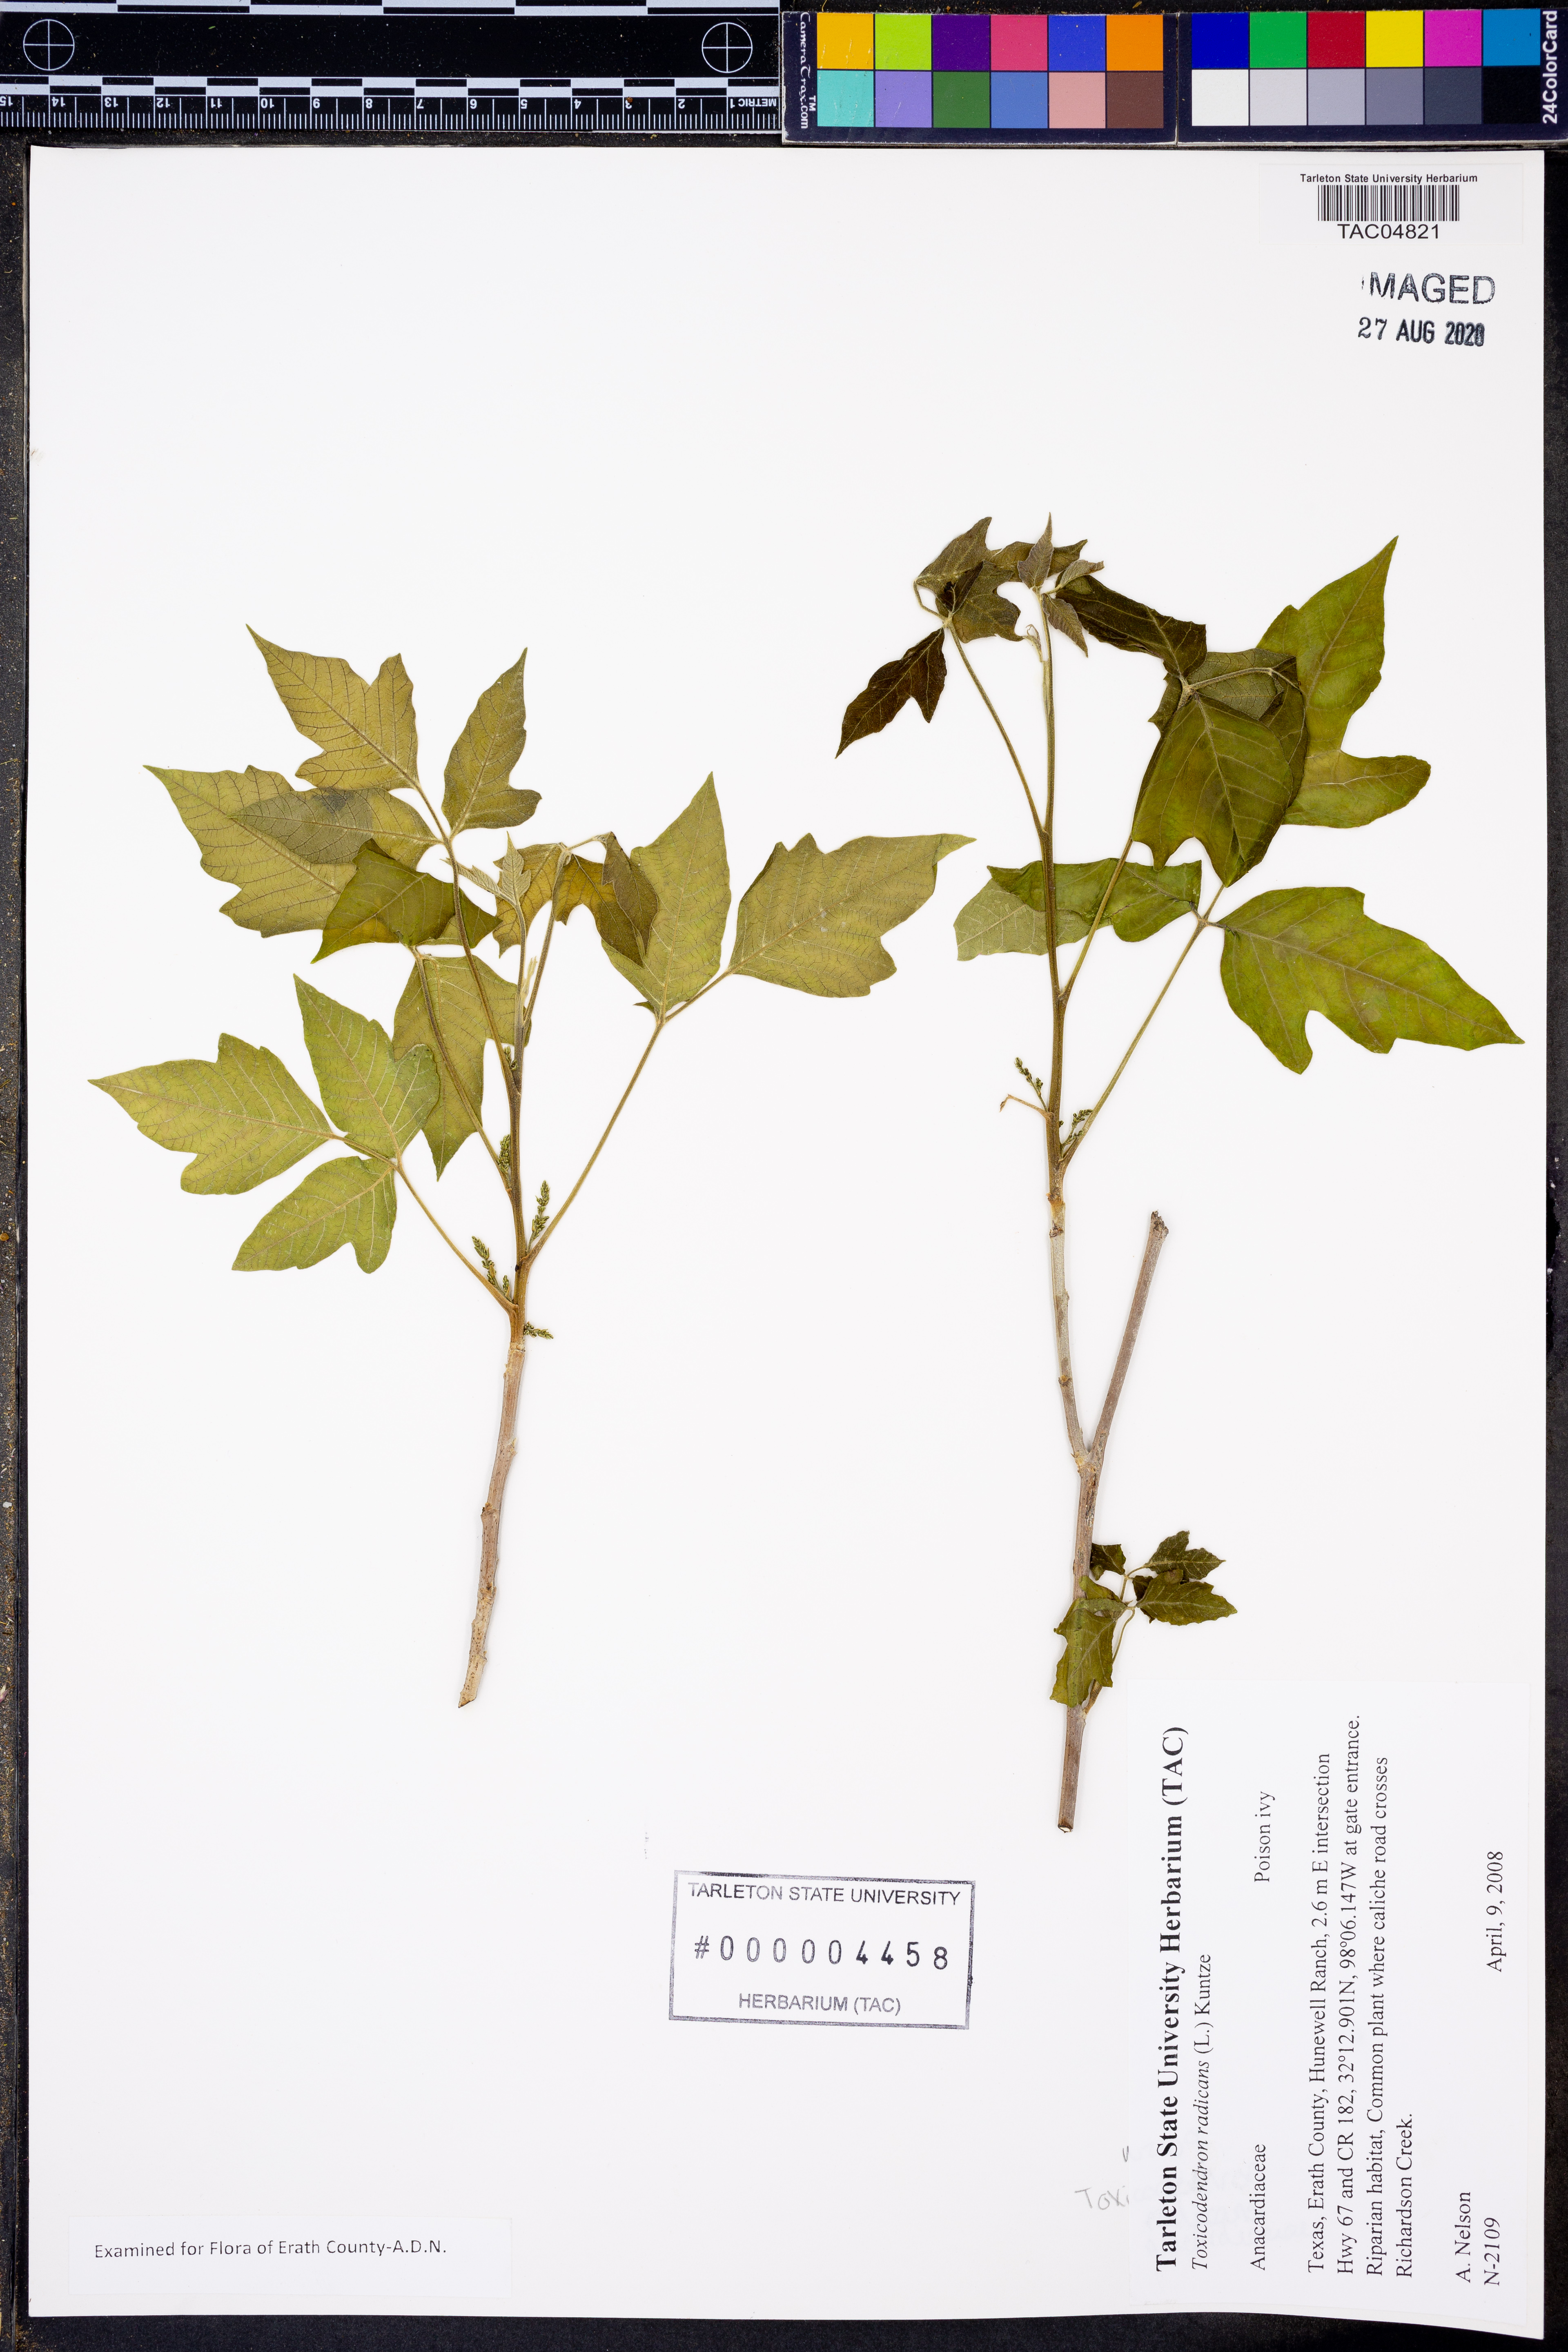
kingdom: Plantae
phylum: Tracheophyta
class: Magnoliopsida
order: Sapindales
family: Anacardiaceae
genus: Toxicodendron
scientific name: Toxicodendron radicans
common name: Poison ivy
